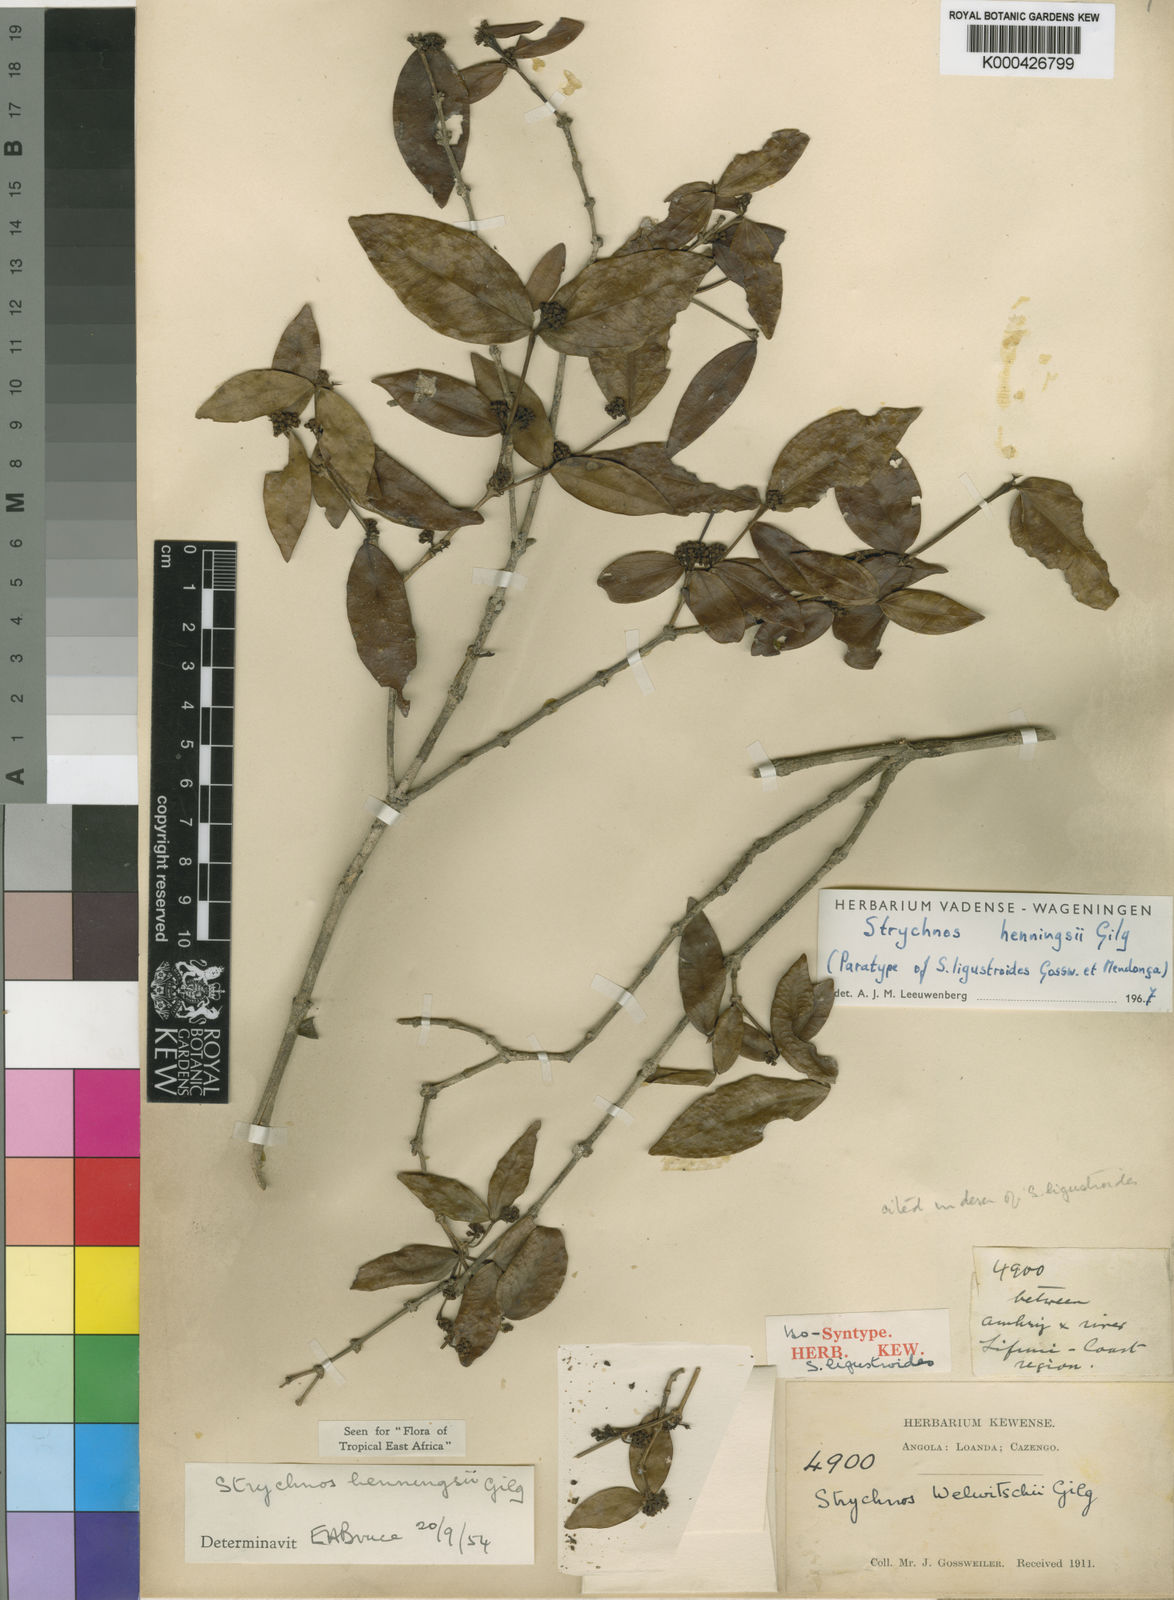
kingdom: Plantae
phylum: Tracheophyta
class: Magnoliopsida
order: Gentianales
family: Loganiaceae
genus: Strychnos
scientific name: Strychnos henningsii
